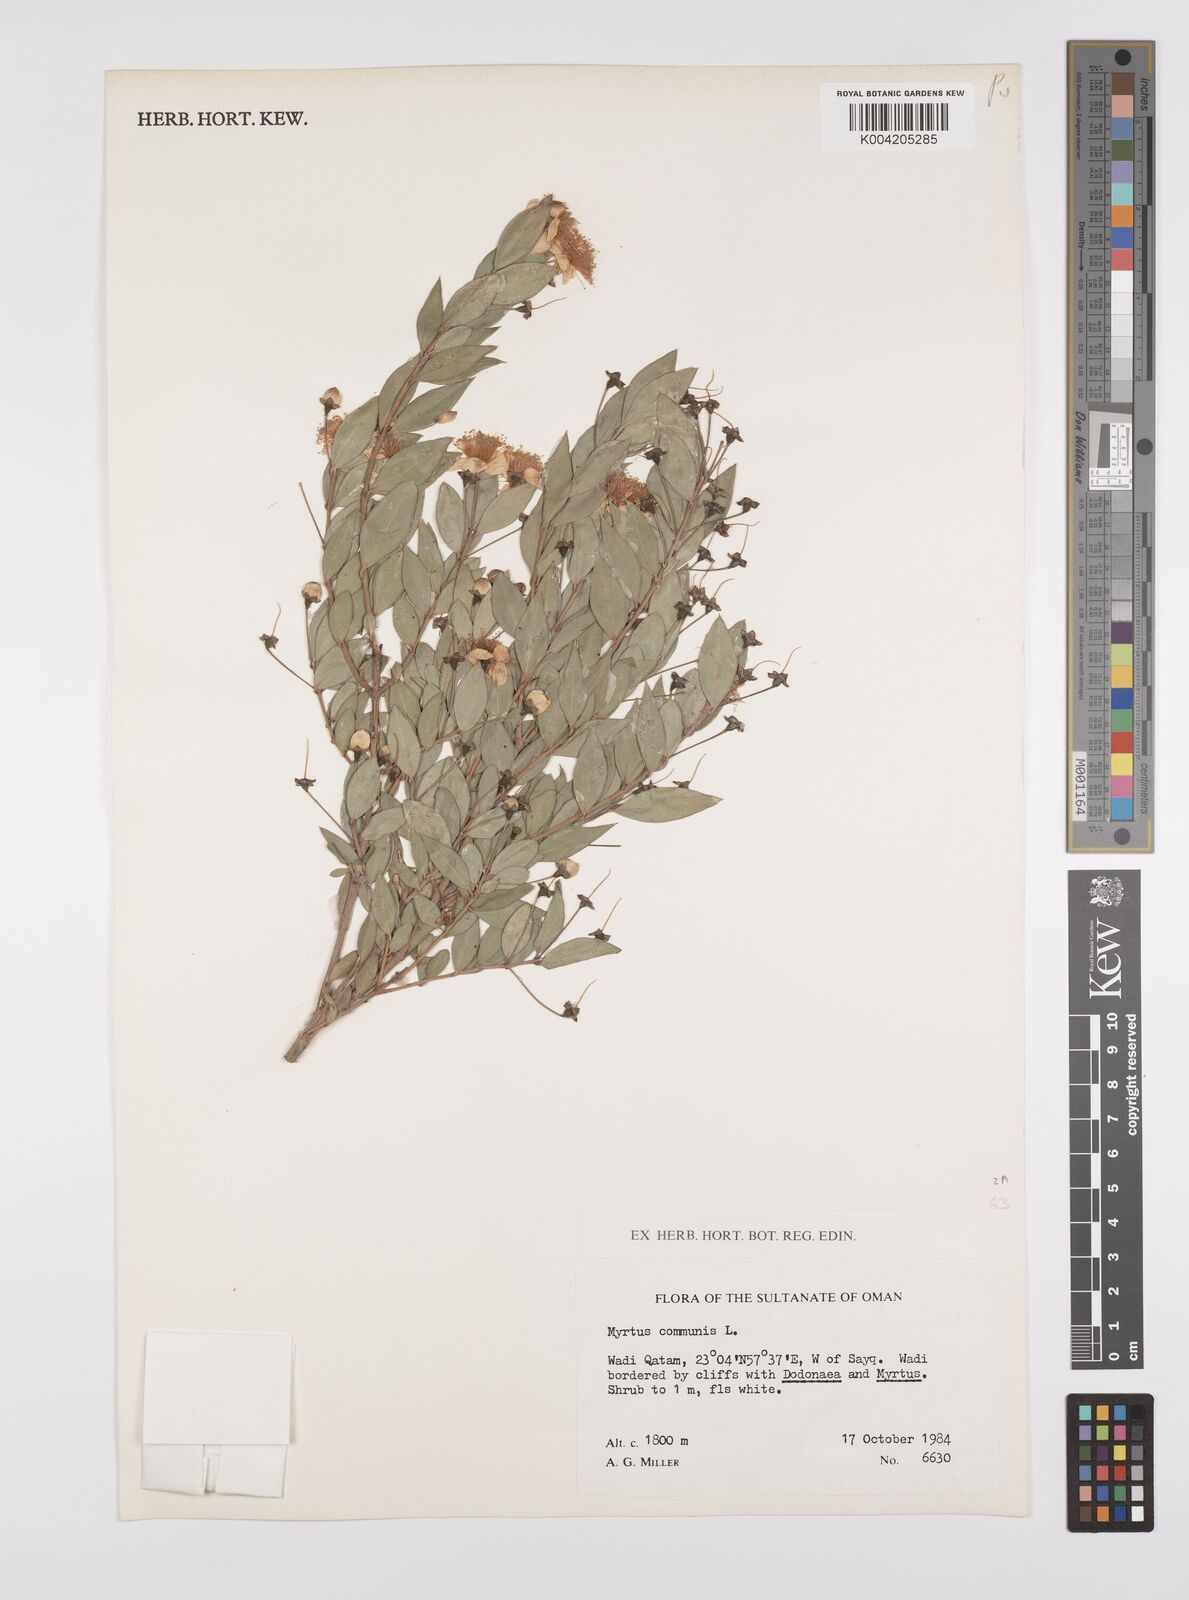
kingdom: Plantae
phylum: Tracheophyta
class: Magnoliopsida
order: Myrtales
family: Myrtaceae
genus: Myrtus
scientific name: Myrtus communis
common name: Myrtle
